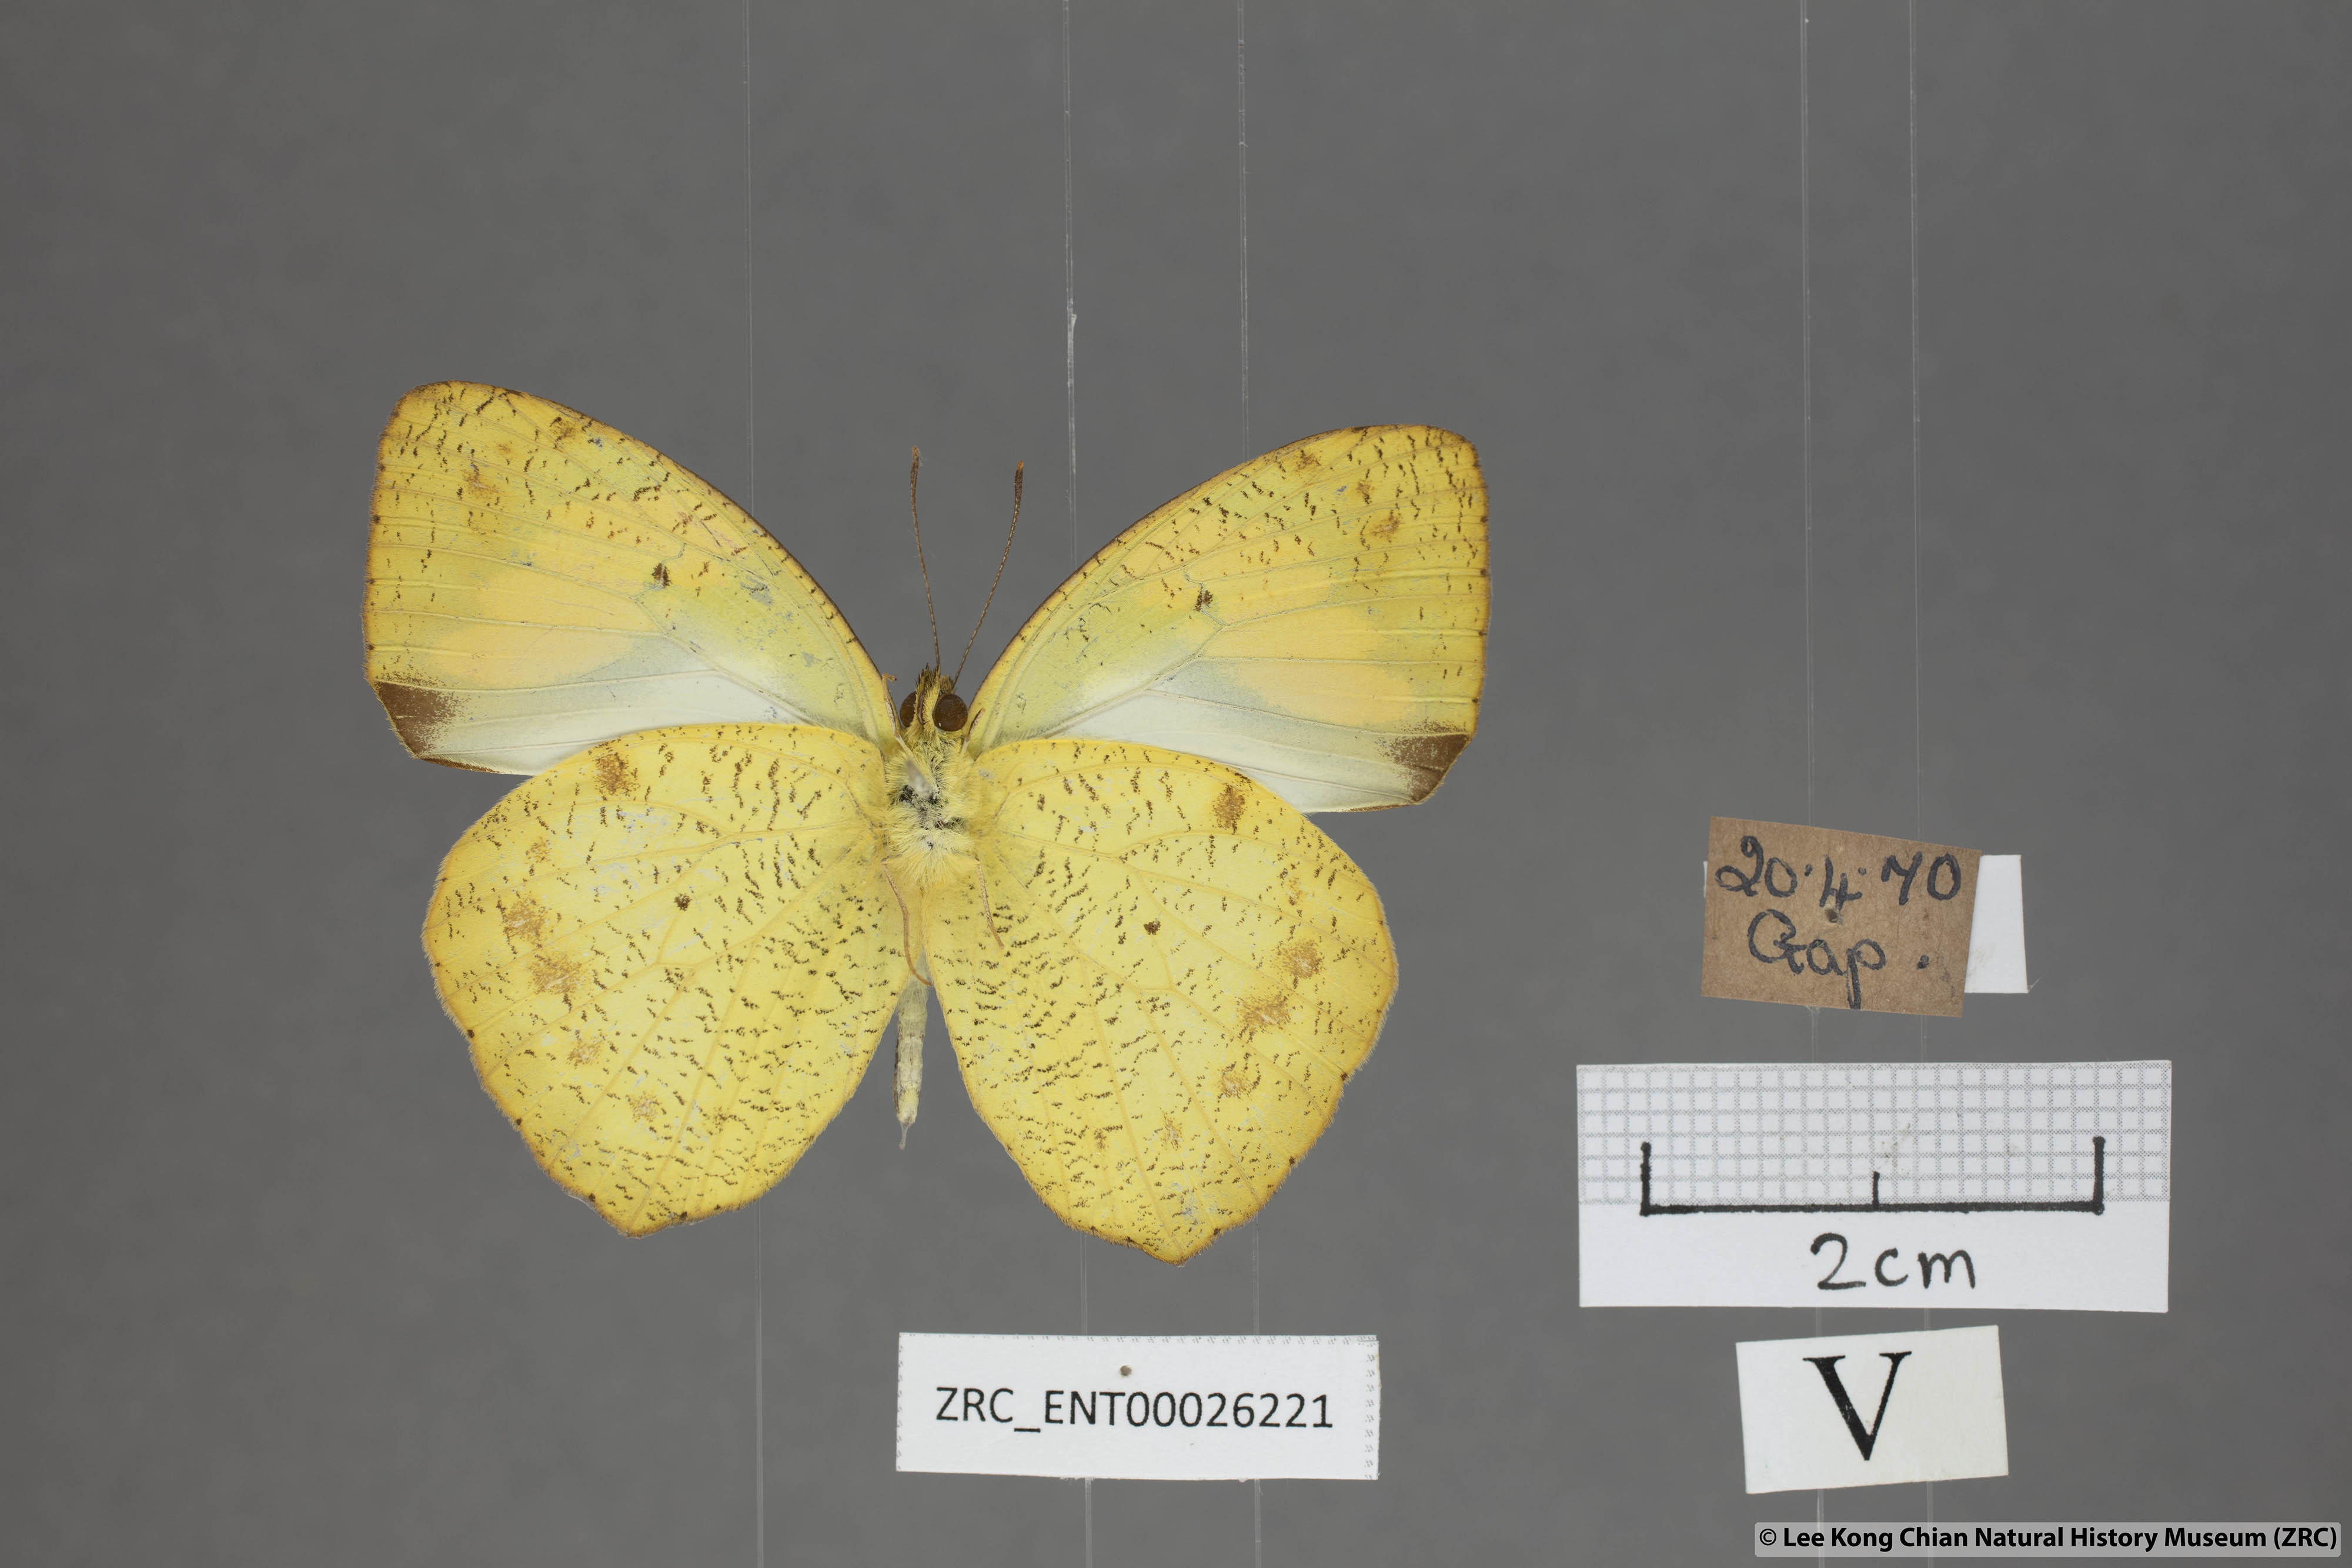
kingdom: Animalia
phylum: Arthropoda
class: Insecta
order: Lepidoptera
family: Pieridae
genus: Ixias
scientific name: Ixias pyrene
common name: Yellow orange tip
